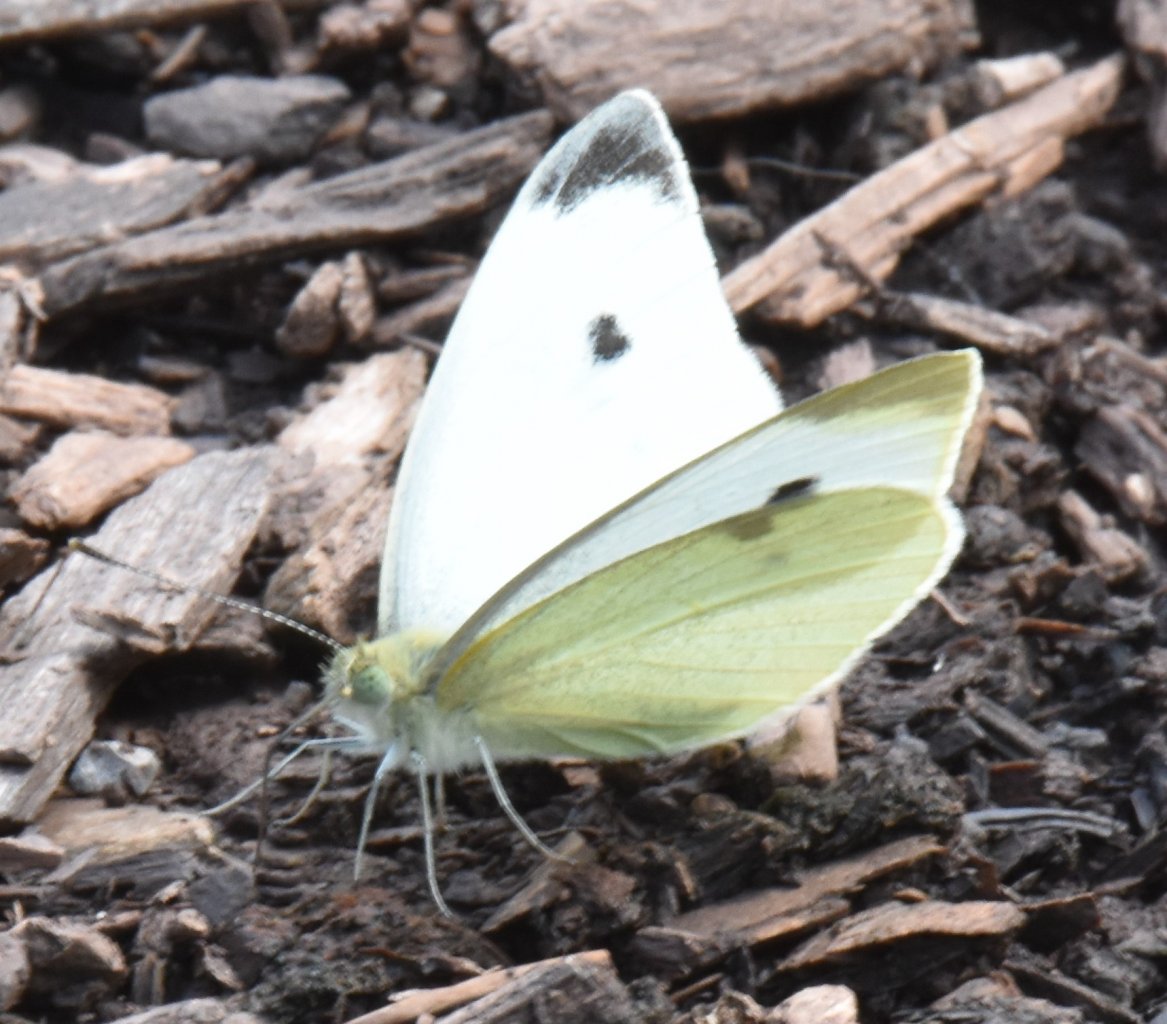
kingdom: Animalia
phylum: Arthropoda
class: Insecta
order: Lepidoptera
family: Pieridae
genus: Pieris
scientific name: Pieris rapae
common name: Cabbage White
